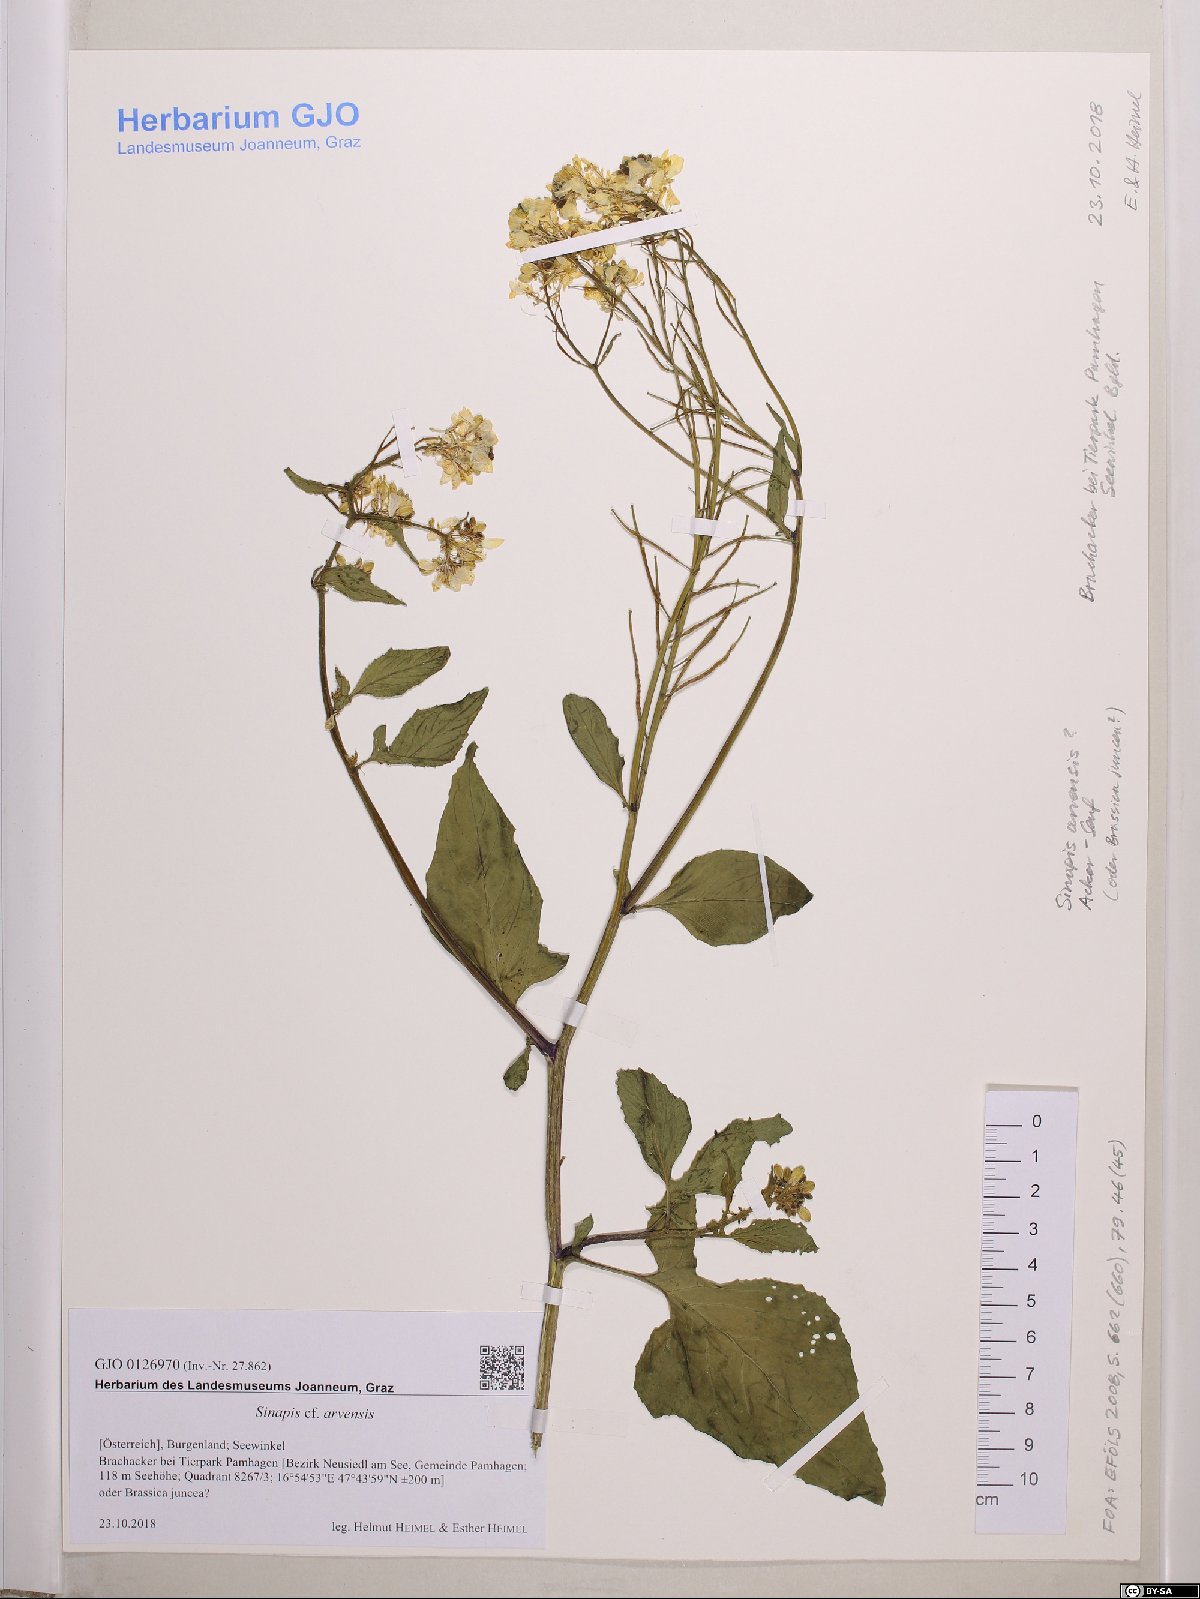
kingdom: Plantae
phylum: Tracheophyta
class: Magnoliopsida
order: Brassicales
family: Brassicaceae
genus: Sinapis
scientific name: Sinapis arvensis
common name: Charlock
